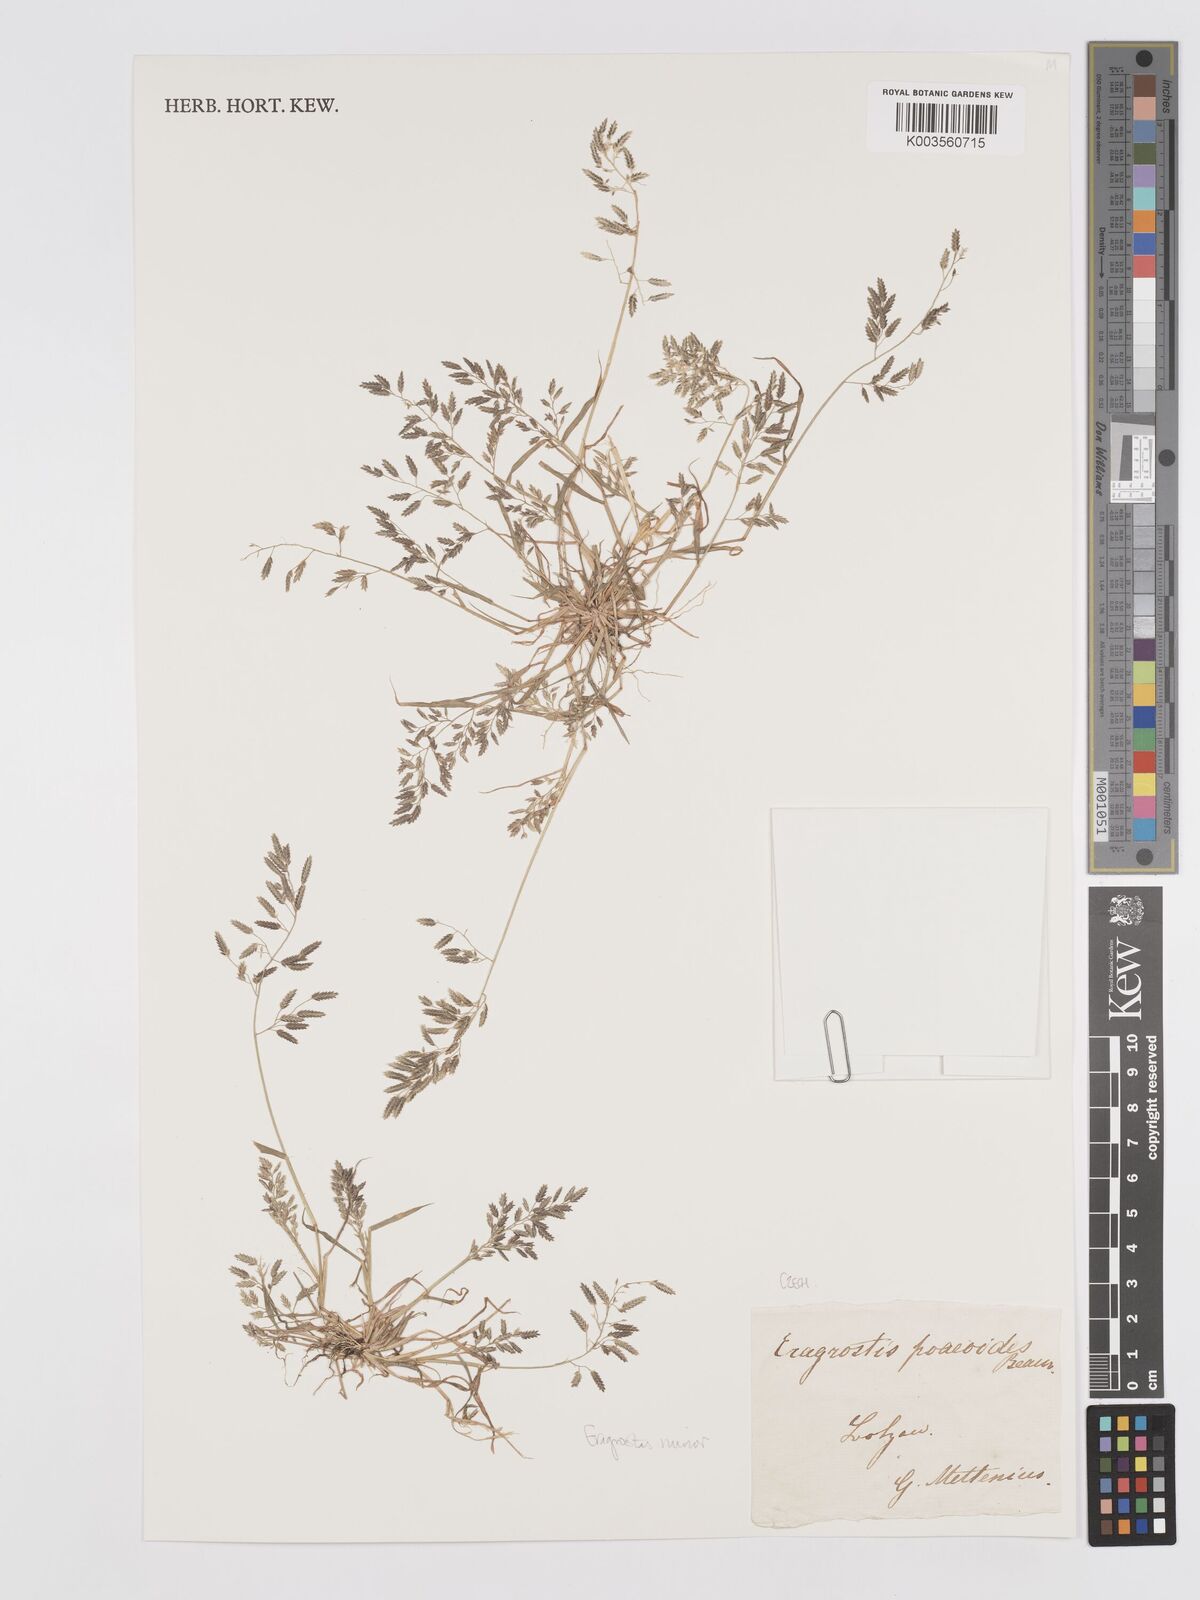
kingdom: Plantae
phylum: Tracheophyta
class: Liliopsida
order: Poales
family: Poaceae
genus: Eragrostis
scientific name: Eragrostis minor
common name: Small love-grass
